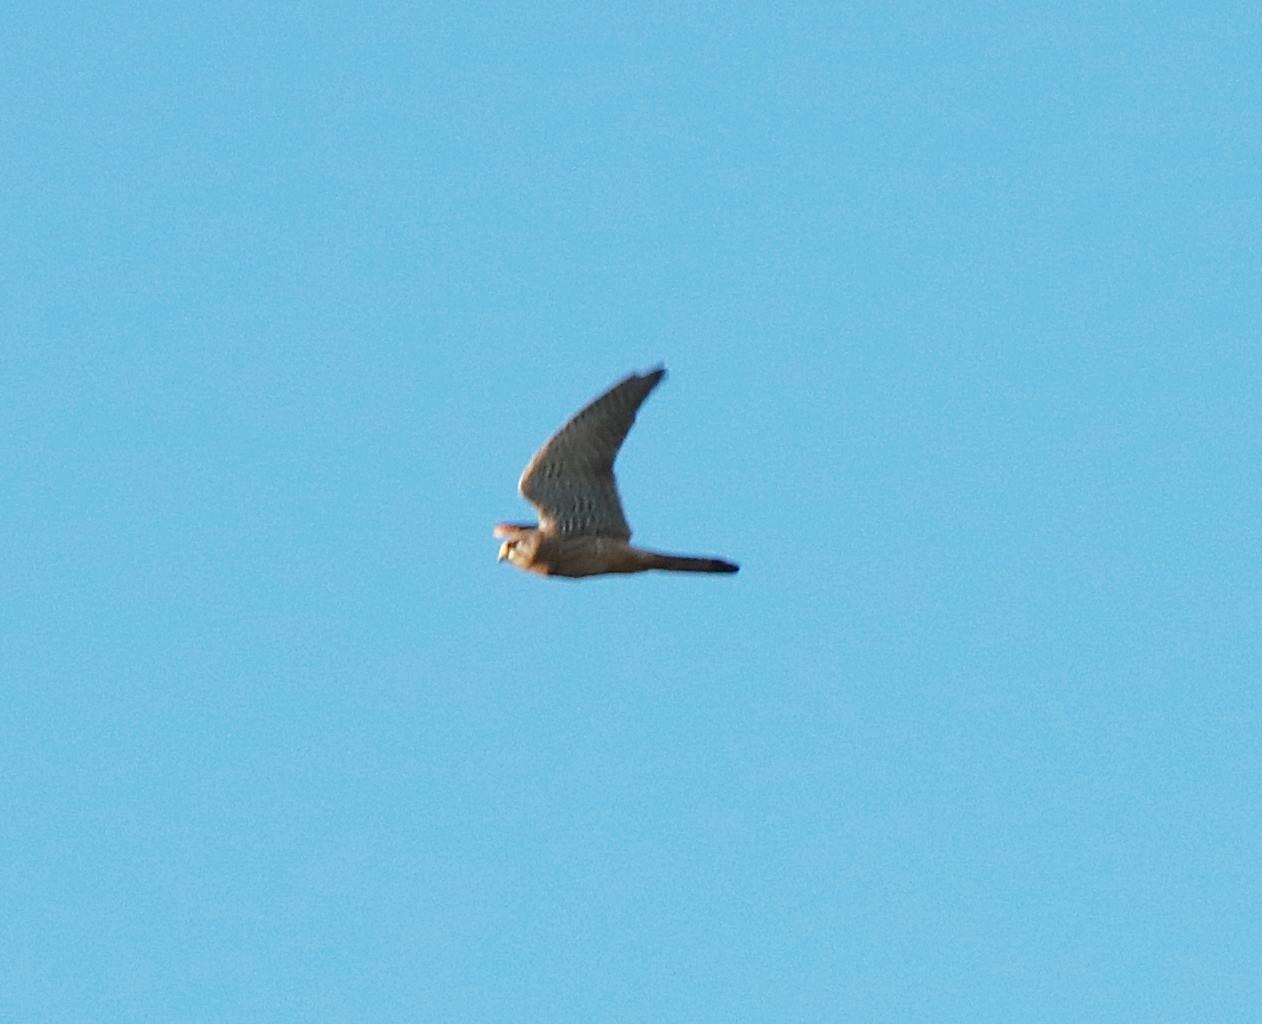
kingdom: Animalia
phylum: Chordata
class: Aves
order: Falconiformes
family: Falconidae
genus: Falco
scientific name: Falco tinnunculus
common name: Tårnfalk
